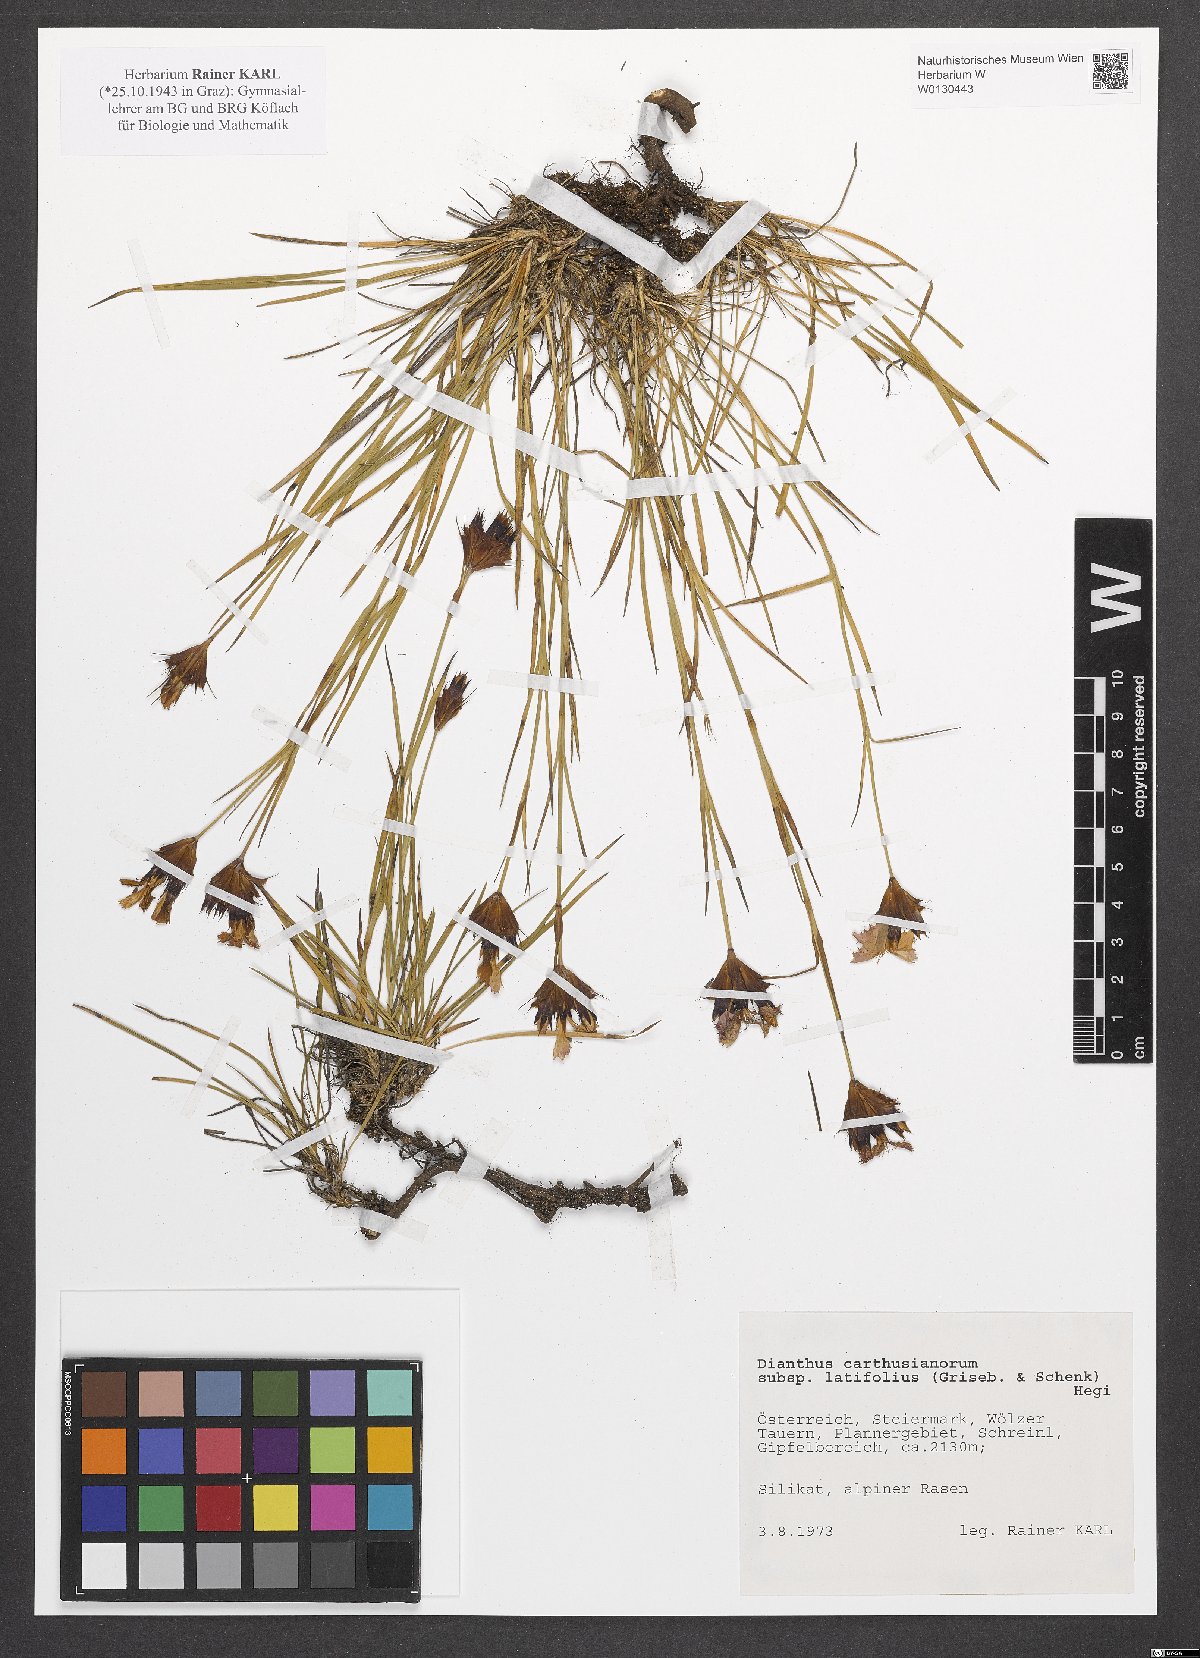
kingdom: Plantae
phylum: Tracheophyta
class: Magnoliopsida
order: Caryophyllales
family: Caryophyllaceae
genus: Dianthus
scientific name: Dianthus carthusianorum
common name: Carthusian pink
